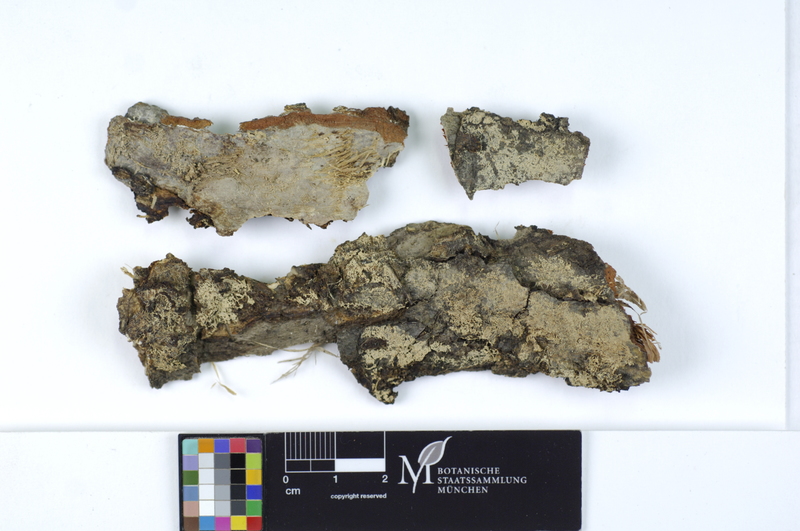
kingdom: Fungi
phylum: Basidiomycota
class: Agaricomycetes
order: Agaricales
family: Stephanosporaceae
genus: Cristinia
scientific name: Cristinia helvetica
